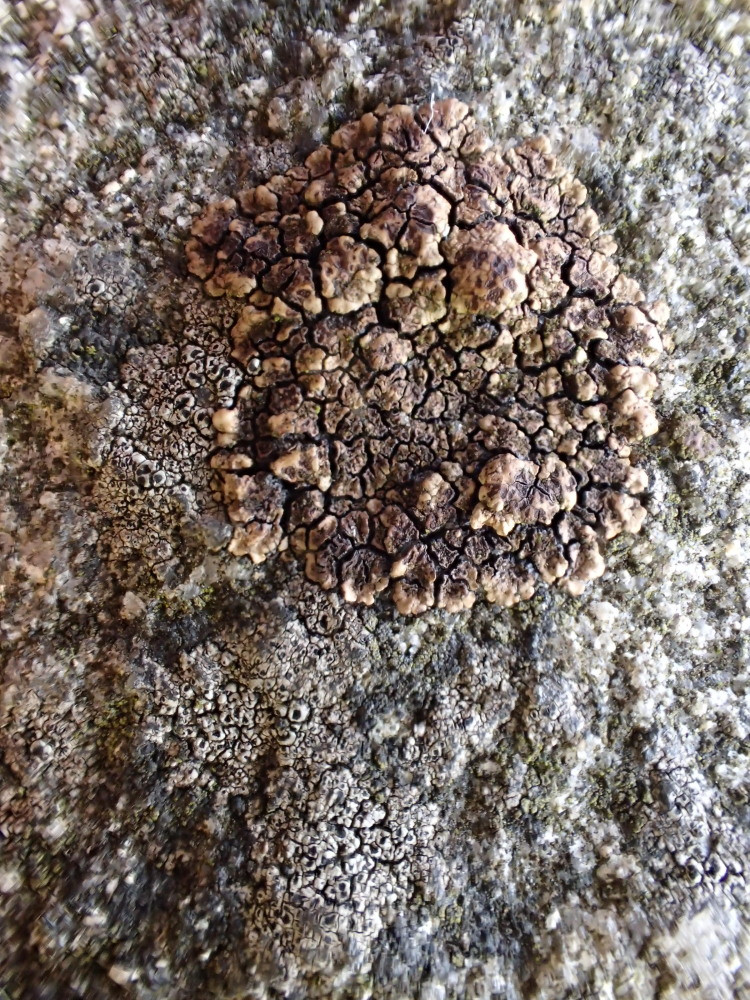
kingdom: Fungi
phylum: Ascomycota
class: Lecanoromycetes
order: Acarosporales
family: Acarosporaceae
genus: Acarospora
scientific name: Acarospora fuscata
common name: brun småsporelav
